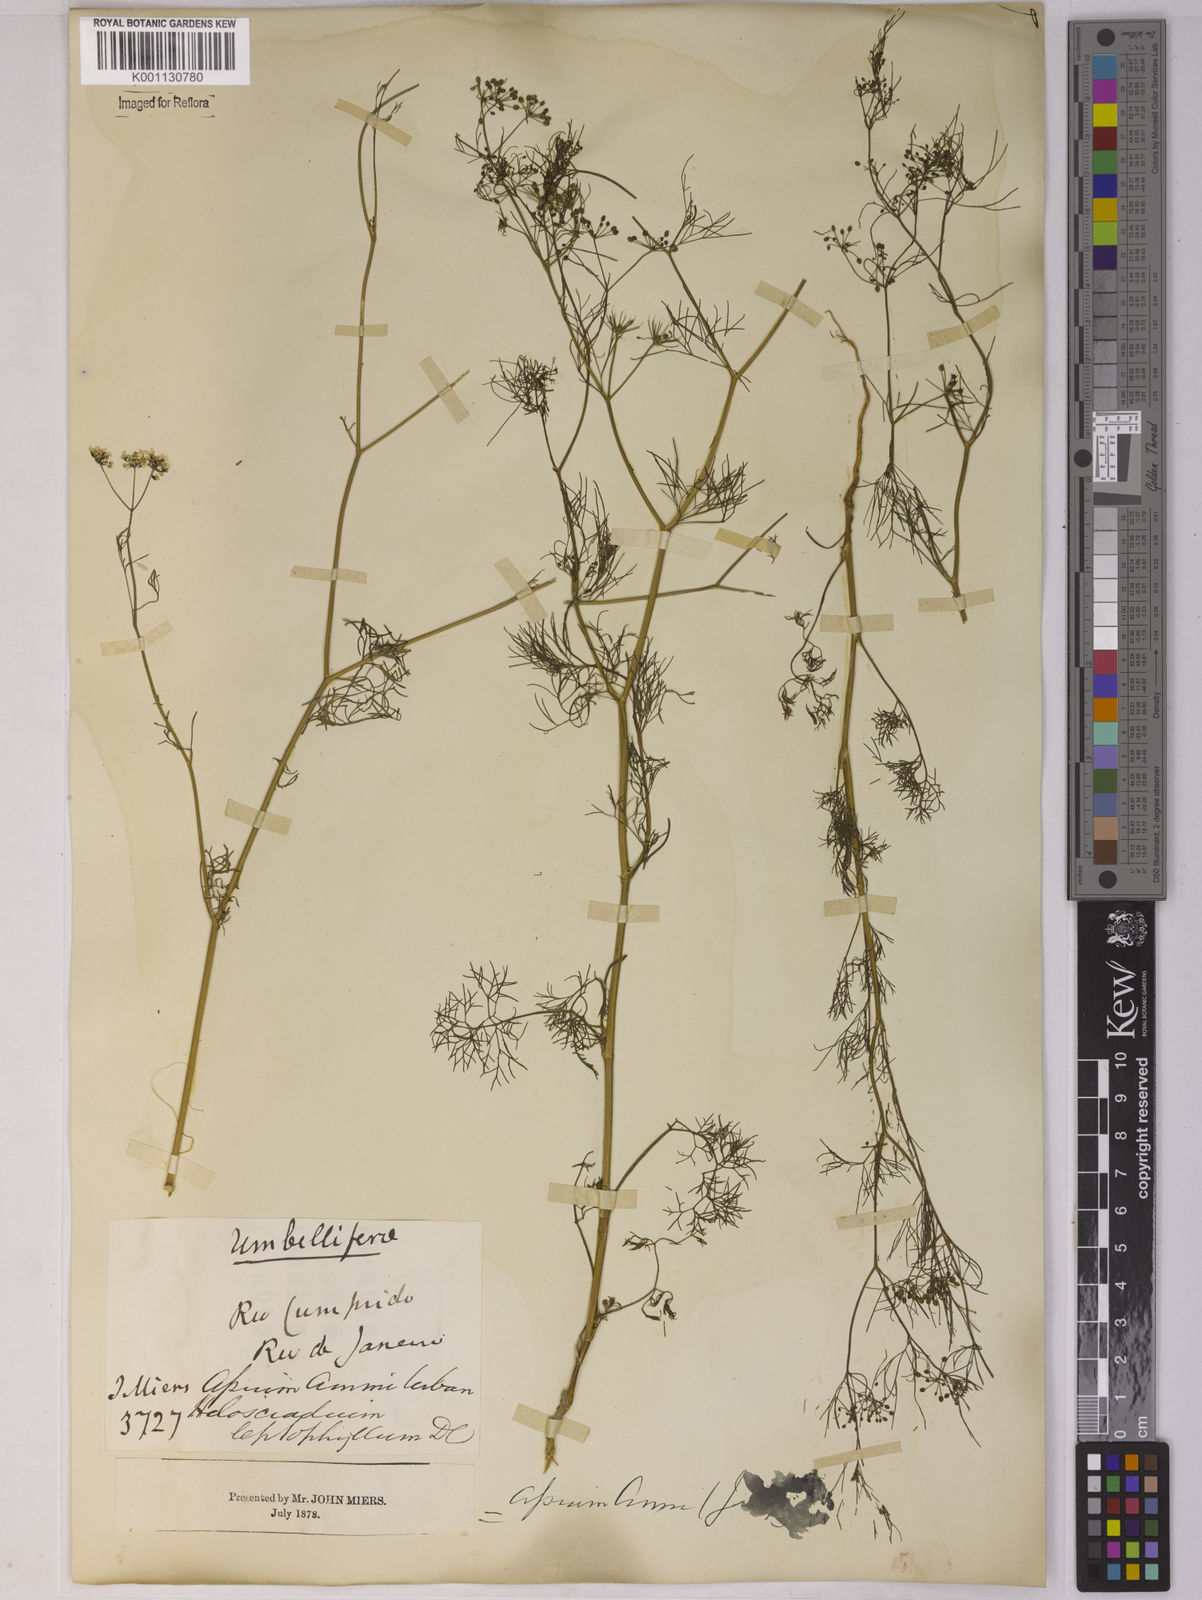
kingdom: Plantae
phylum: Tracheophyta
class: Magnoliopsida
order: Apiales
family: Apiaceae
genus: Apium
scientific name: Apium
